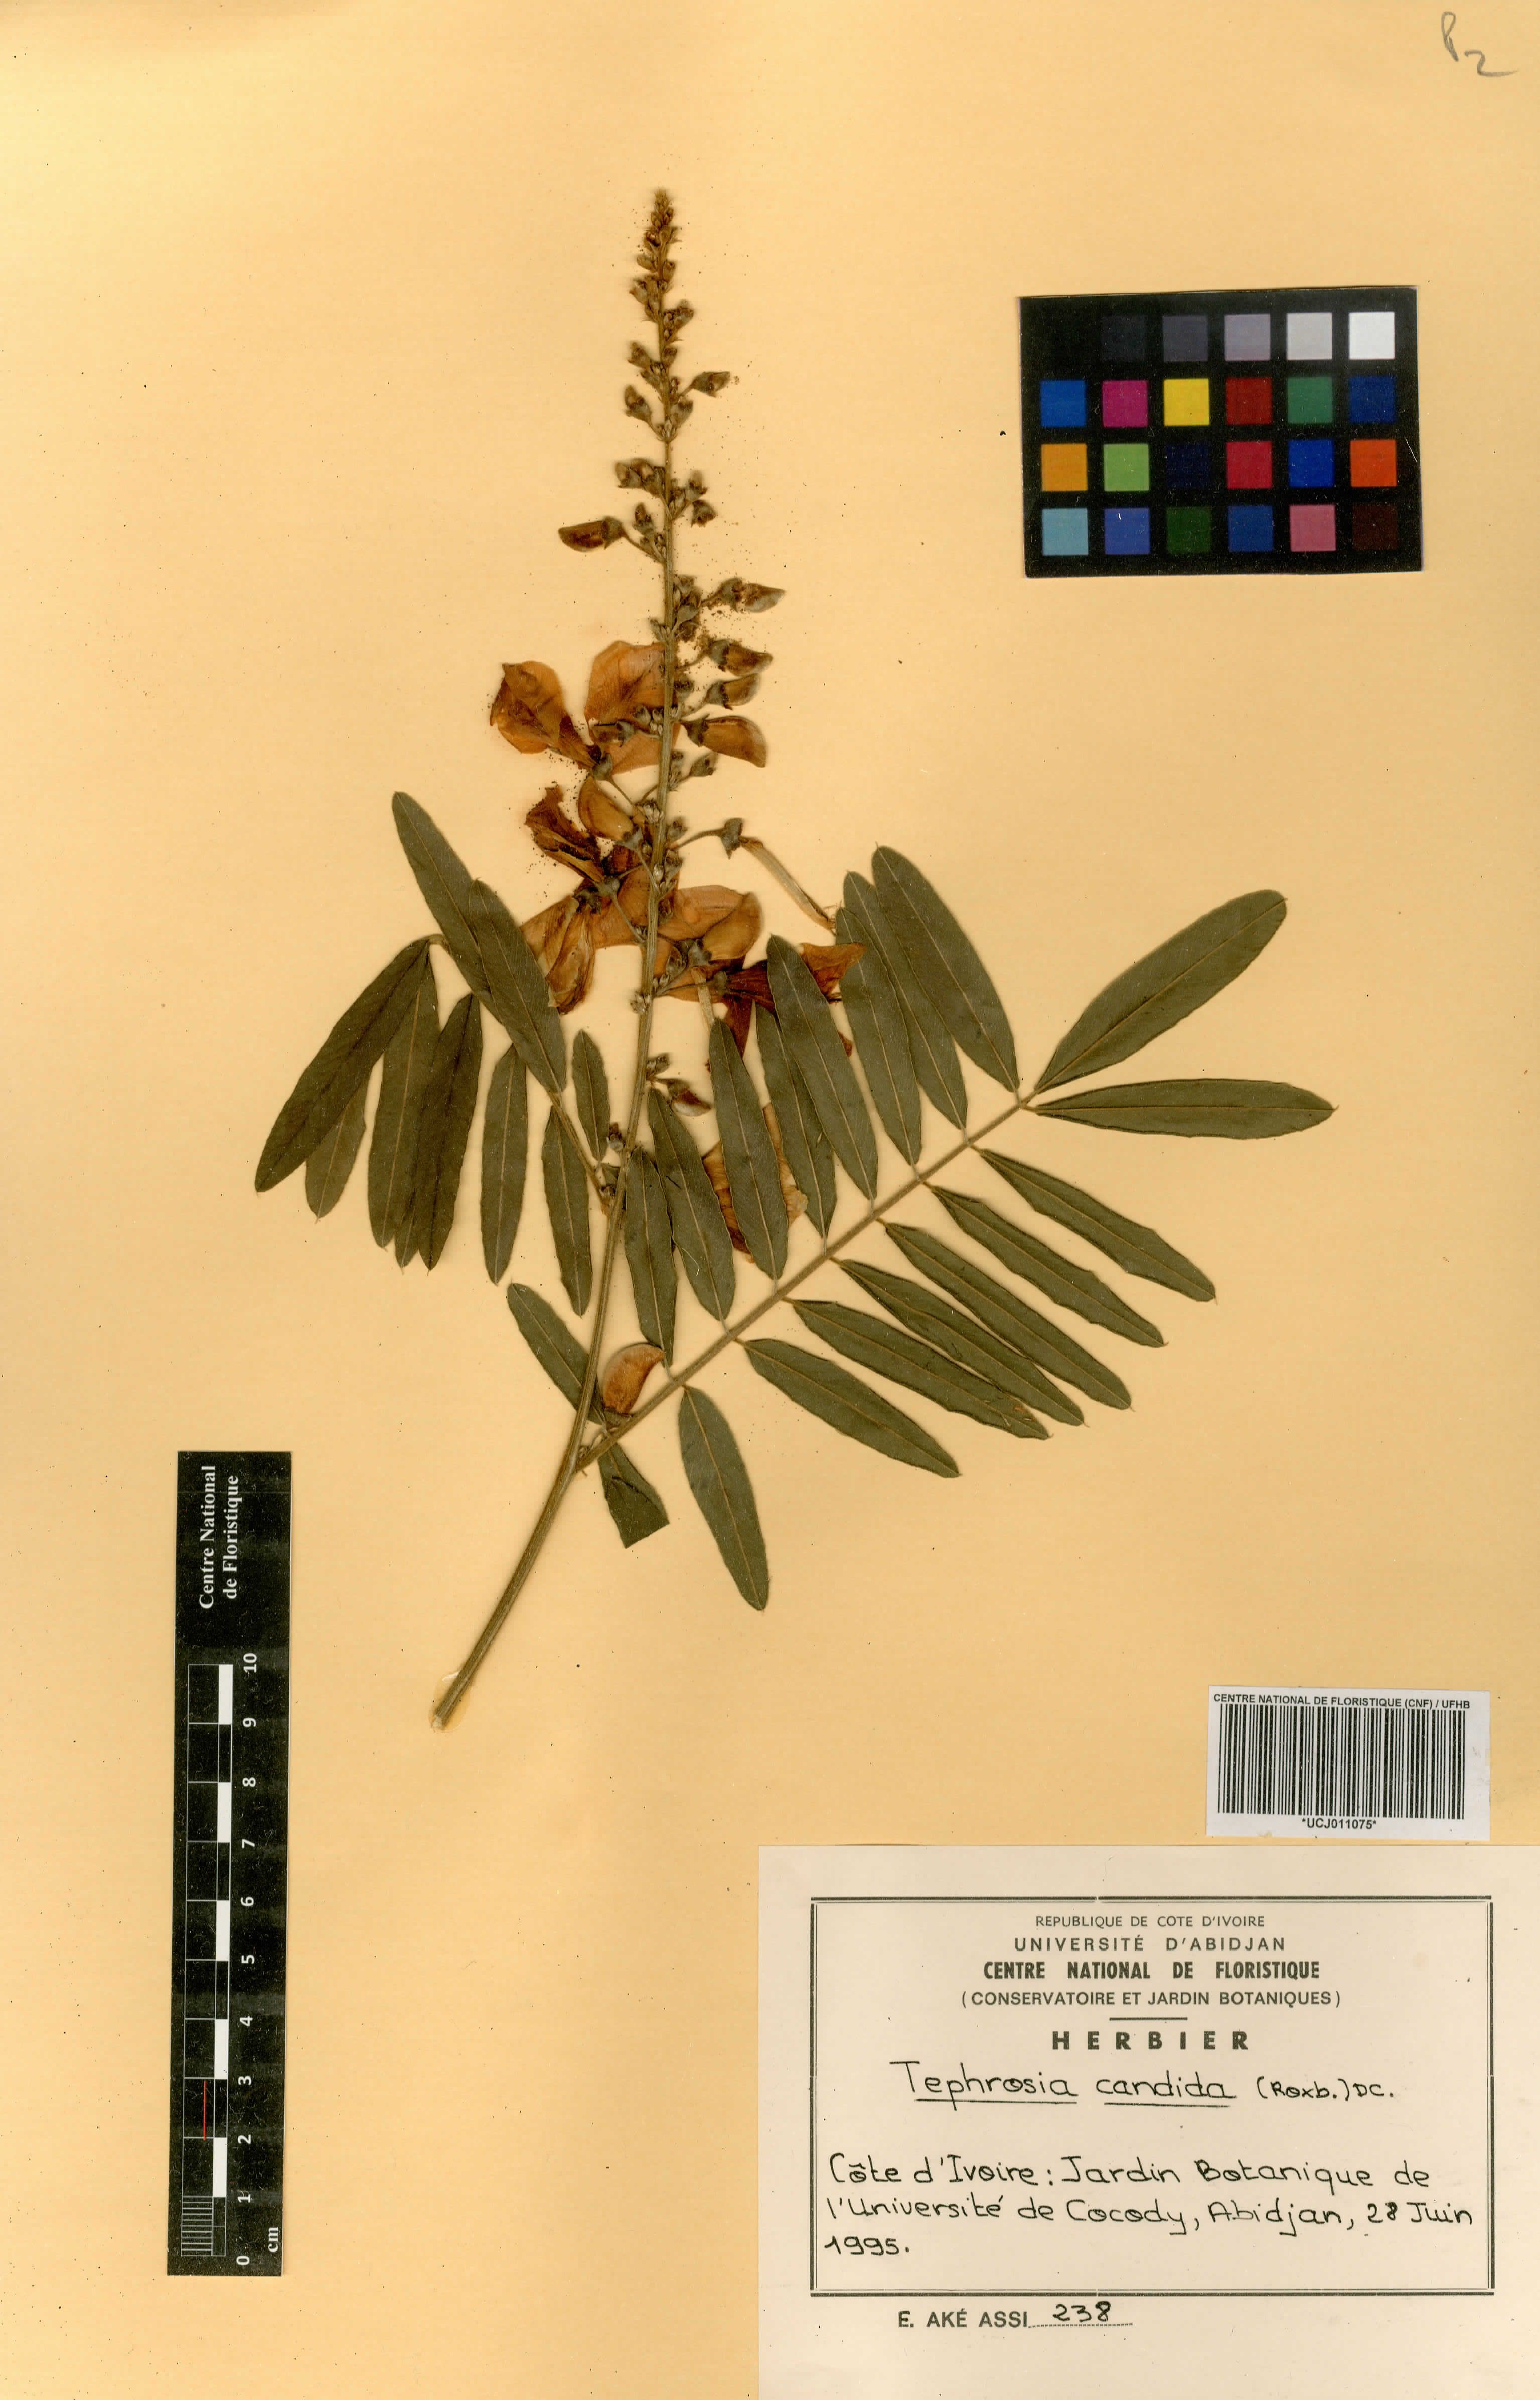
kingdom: Plantae
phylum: Tracheophyta
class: Magnoliopsida
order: Fabales
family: Fabaceae
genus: Tephrosia
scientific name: Tephrosia candida
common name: White tephrosia
